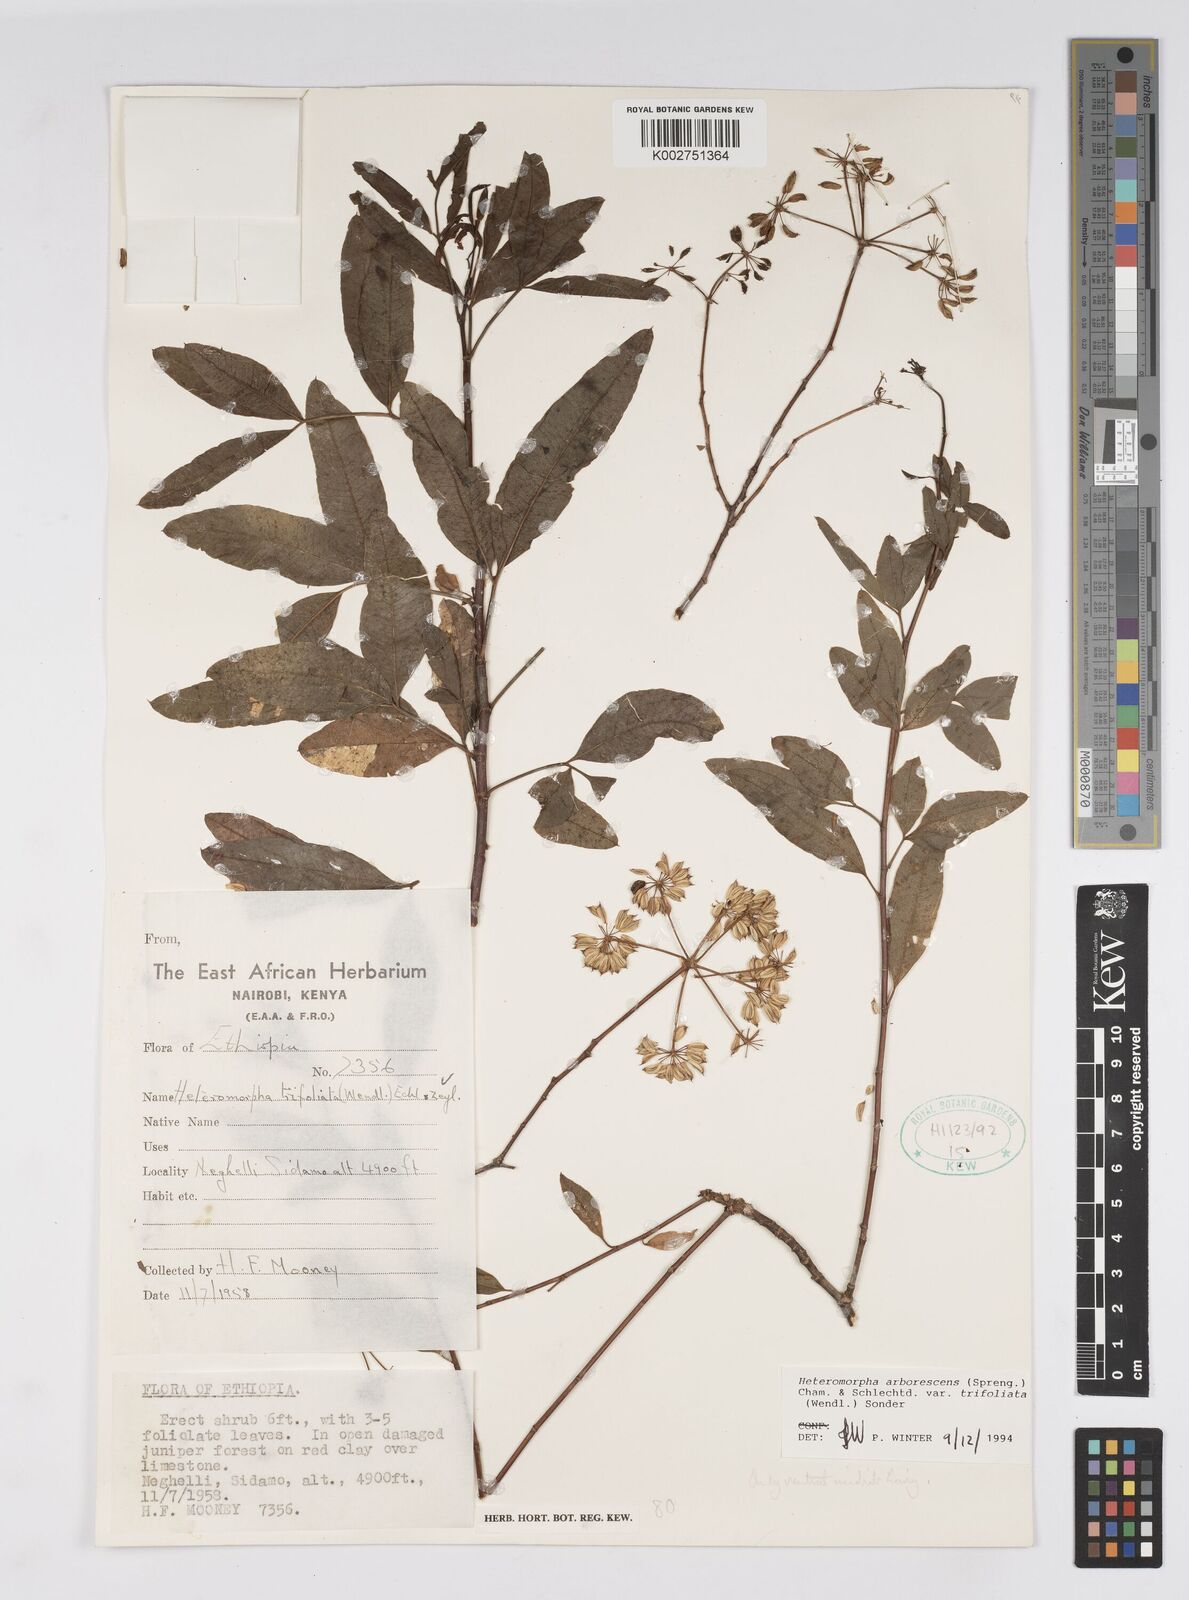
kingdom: Plantae
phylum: Tracheophyta
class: Magnoliopsida
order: Apiales
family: Apiaceae
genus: Heteromorpha
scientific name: Heteromorpha arborescens
